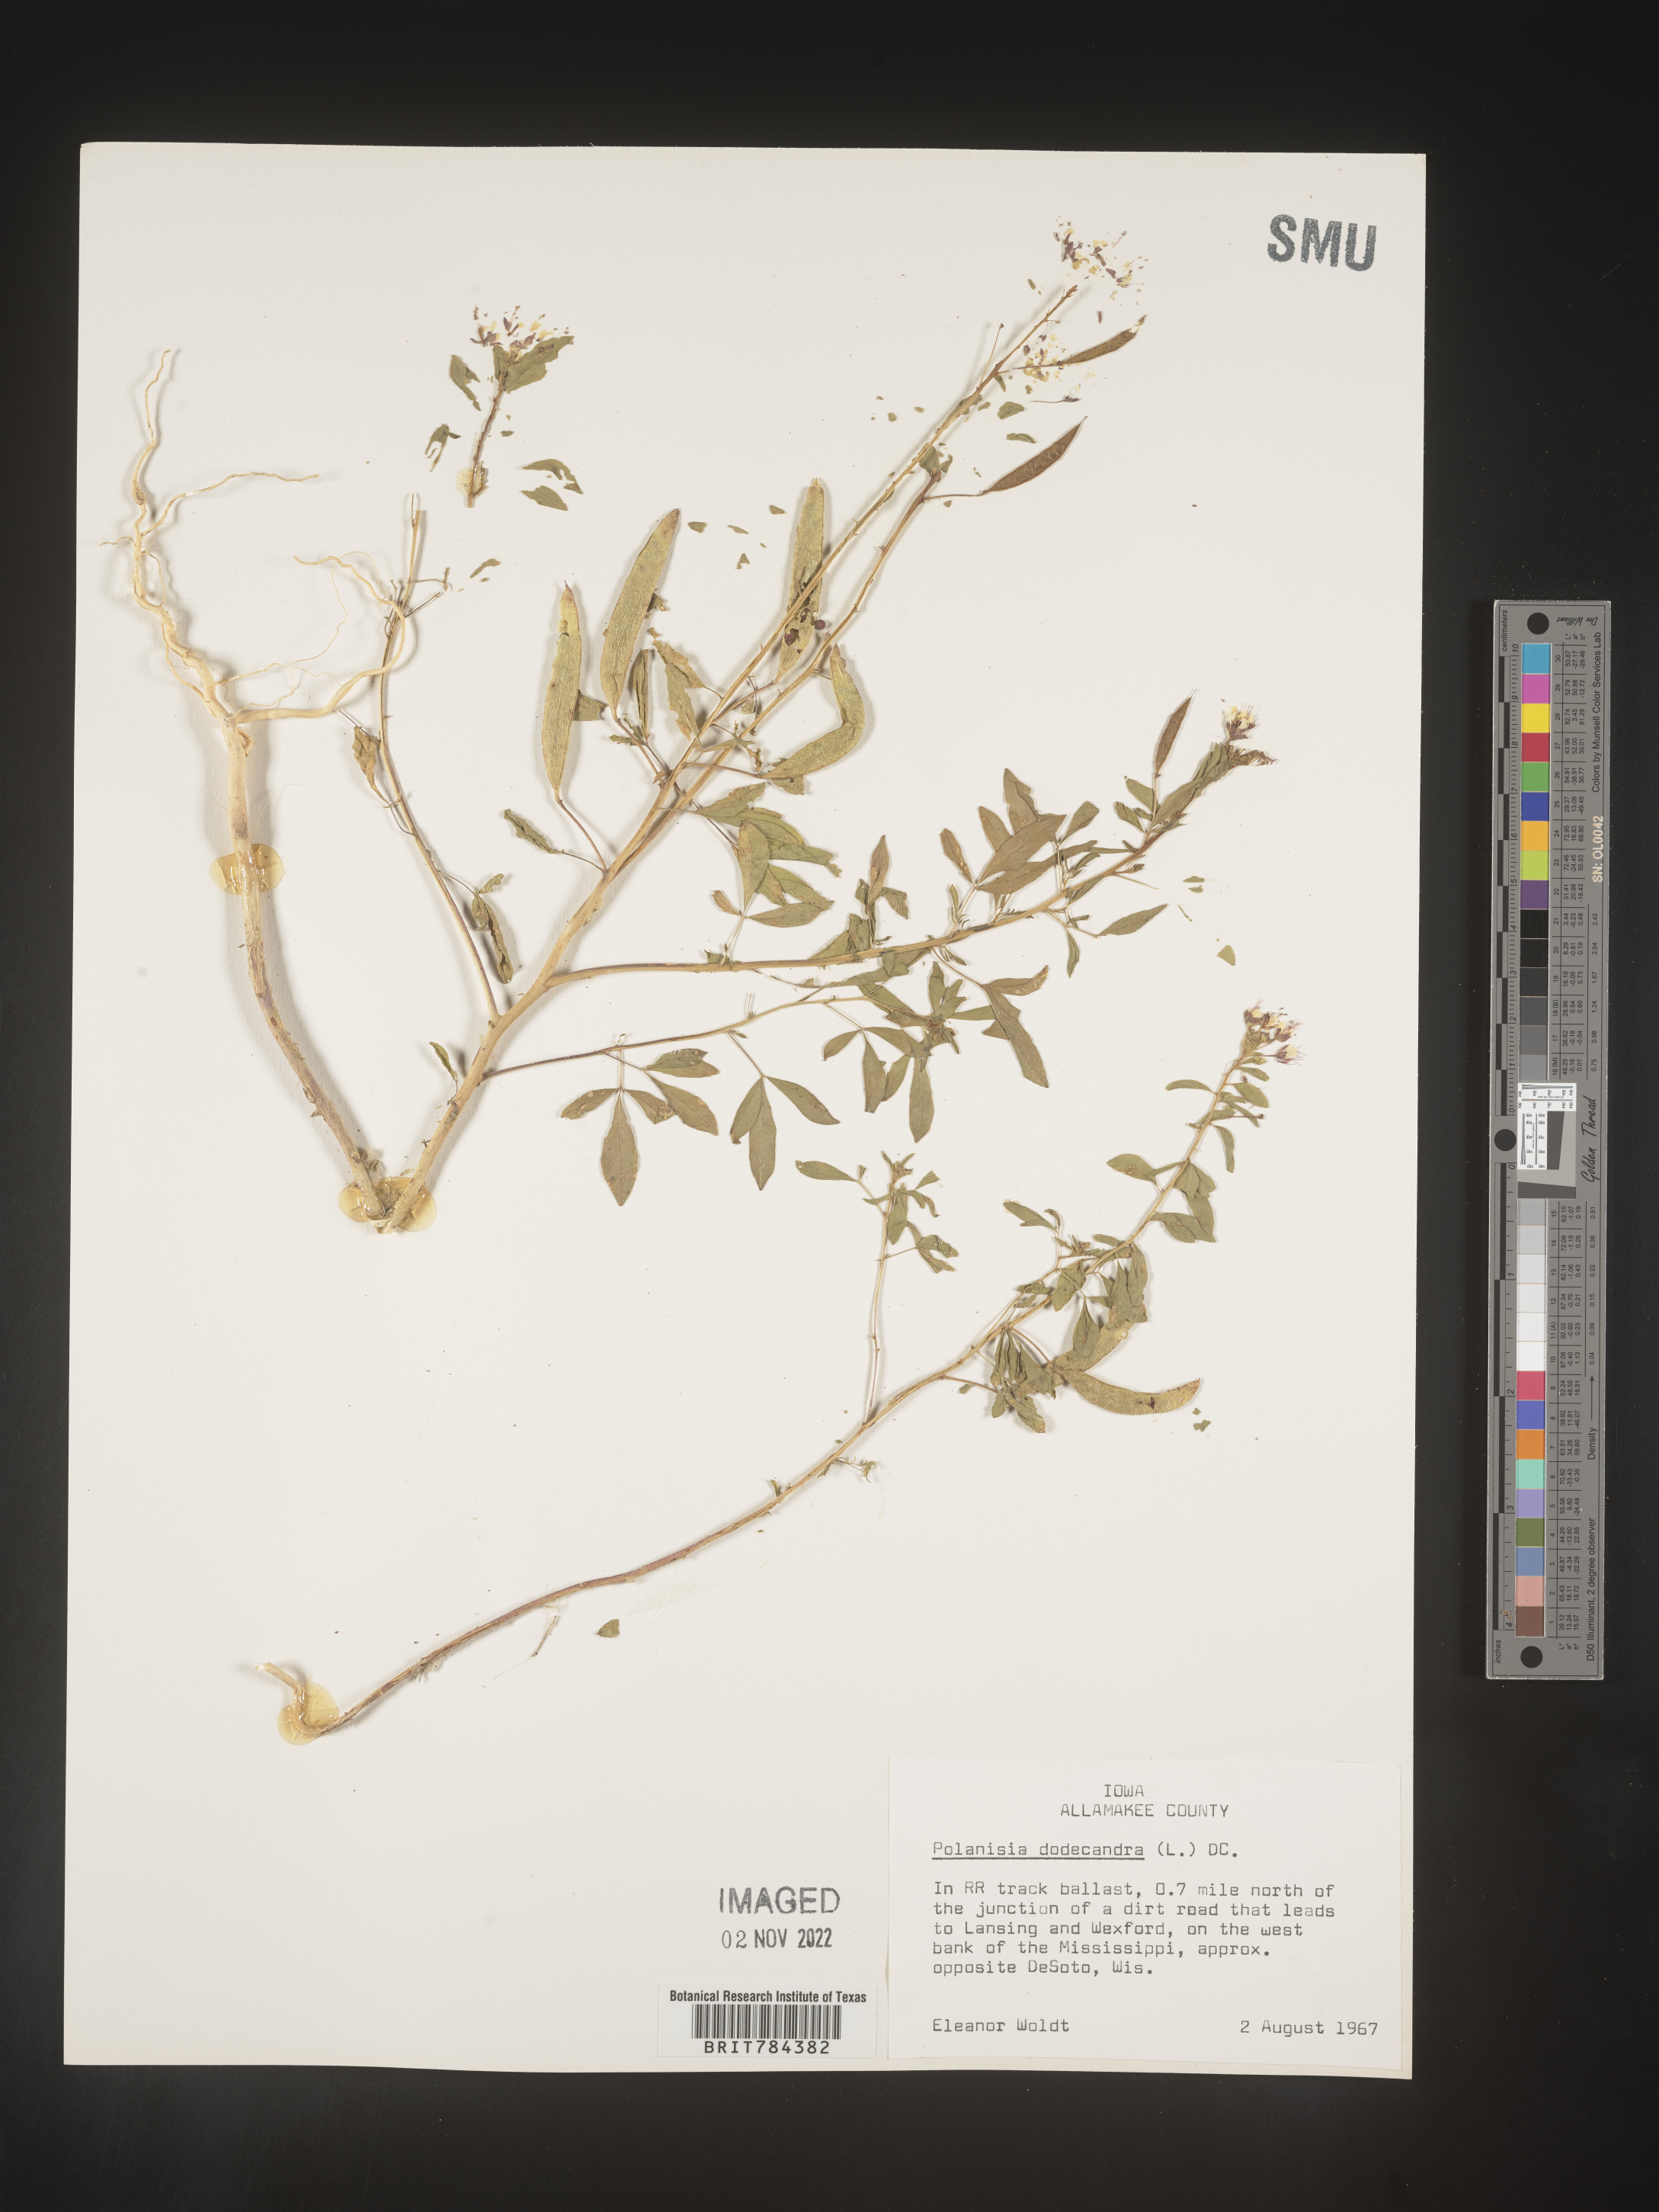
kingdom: Plantae
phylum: Tracheophyta
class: Magnoliopsida
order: Brassicales
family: Cleomaceae
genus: Polanisia
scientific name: Polanisia dodecandra
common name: Clammyweed
